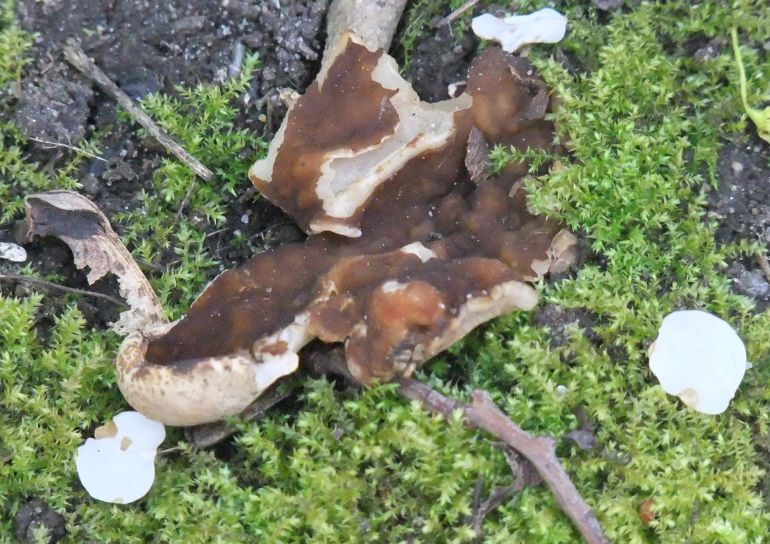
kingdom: Fungi
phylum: Ascomycota
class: Pezizomycetes
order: Pezizales
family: Morchellaceae
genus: Disciotis
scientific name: Disciotis venosa
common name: klor-bægermorkel
